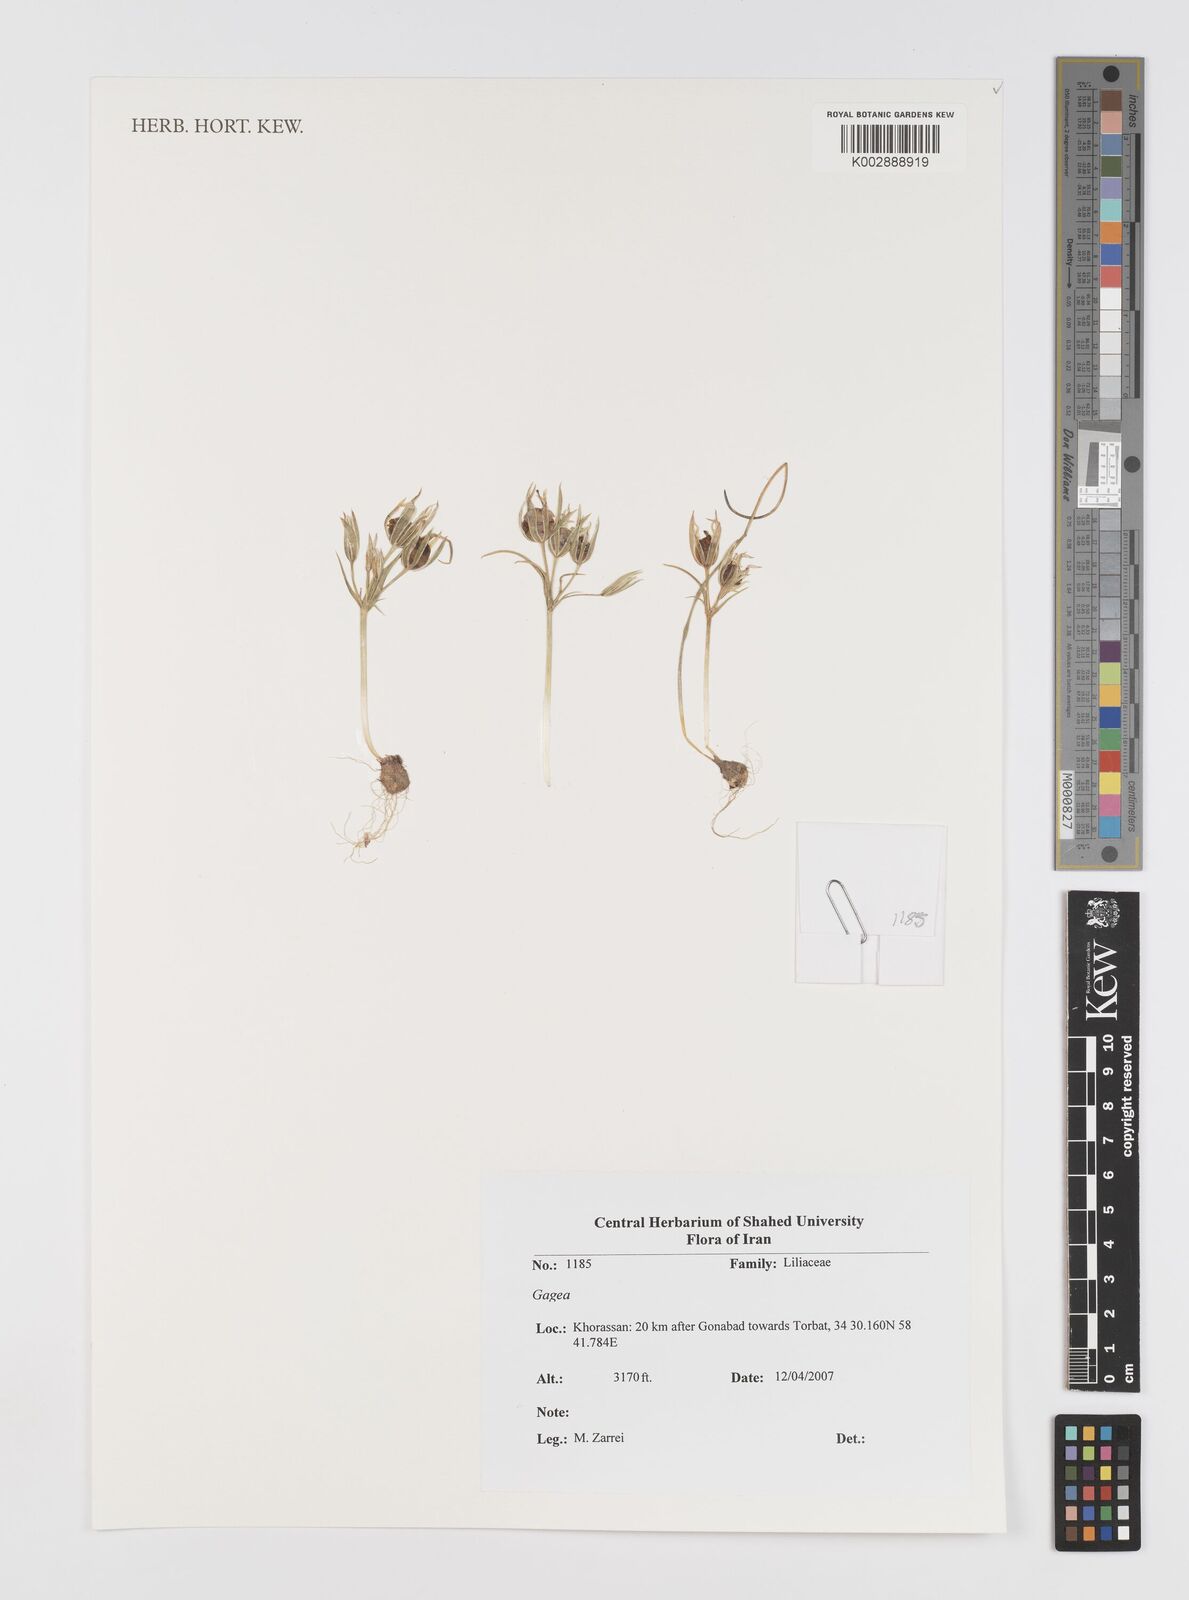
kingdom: Plantae
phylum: Tracheophyta
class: Liliopsida
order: Liliales
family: Liliaceae
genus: Gagea
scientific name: Gagea
